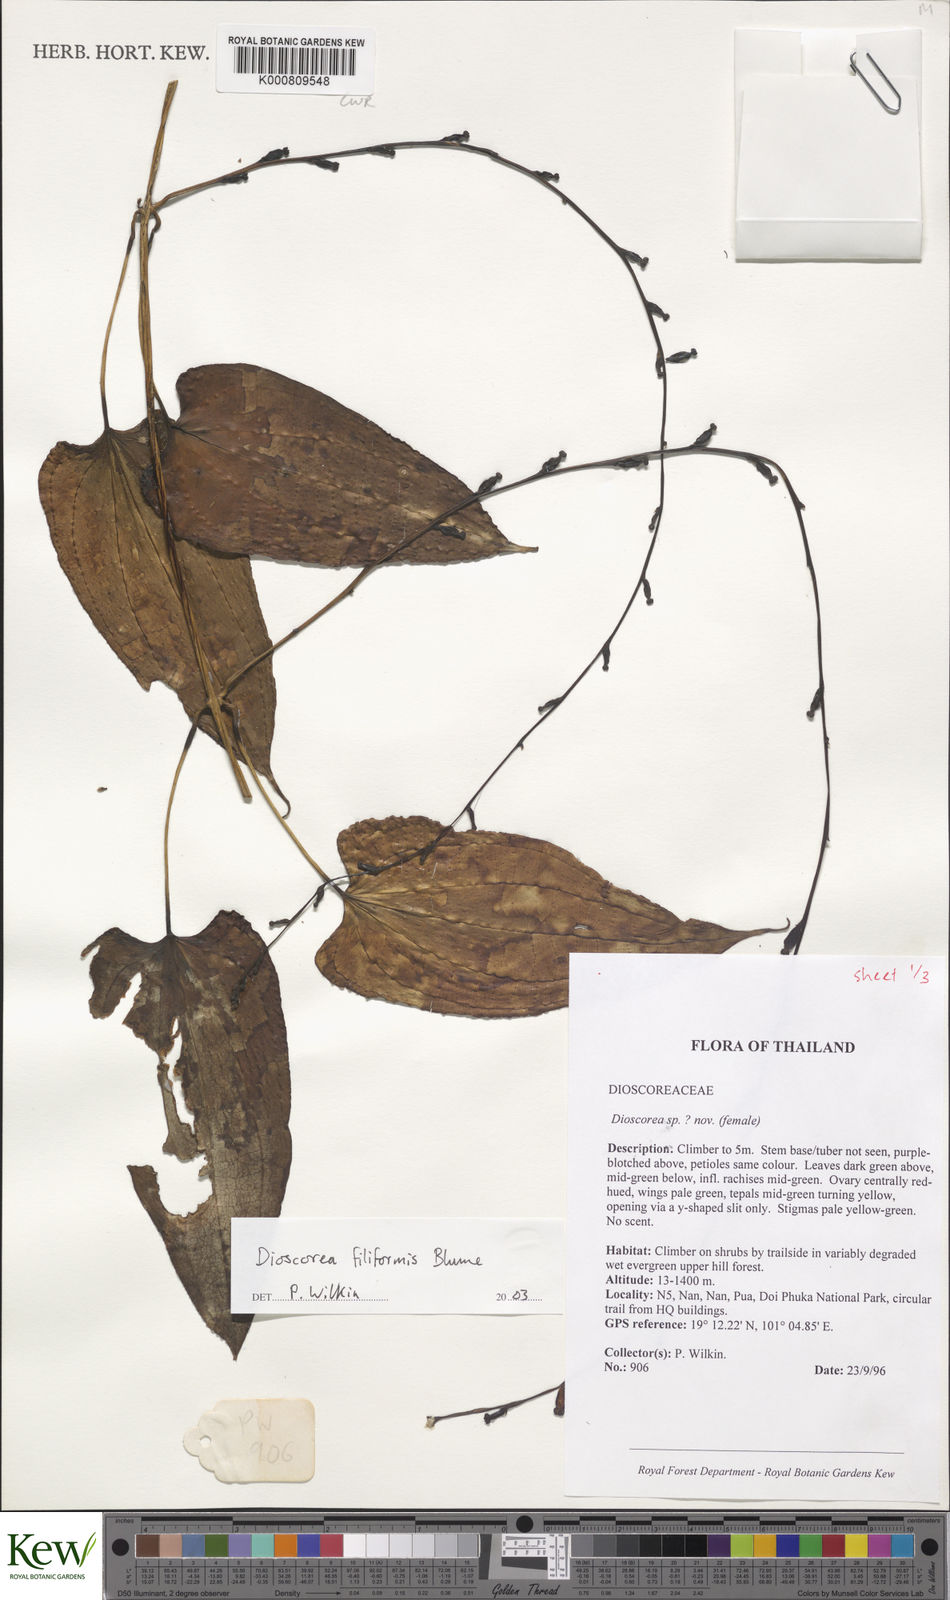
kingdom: Plantae
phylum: Tracheophyta
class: Liliopsida
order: Dioscoreales
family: Dioscoreaceae
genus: Dioscorea
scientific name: Dioscorea filiformis
